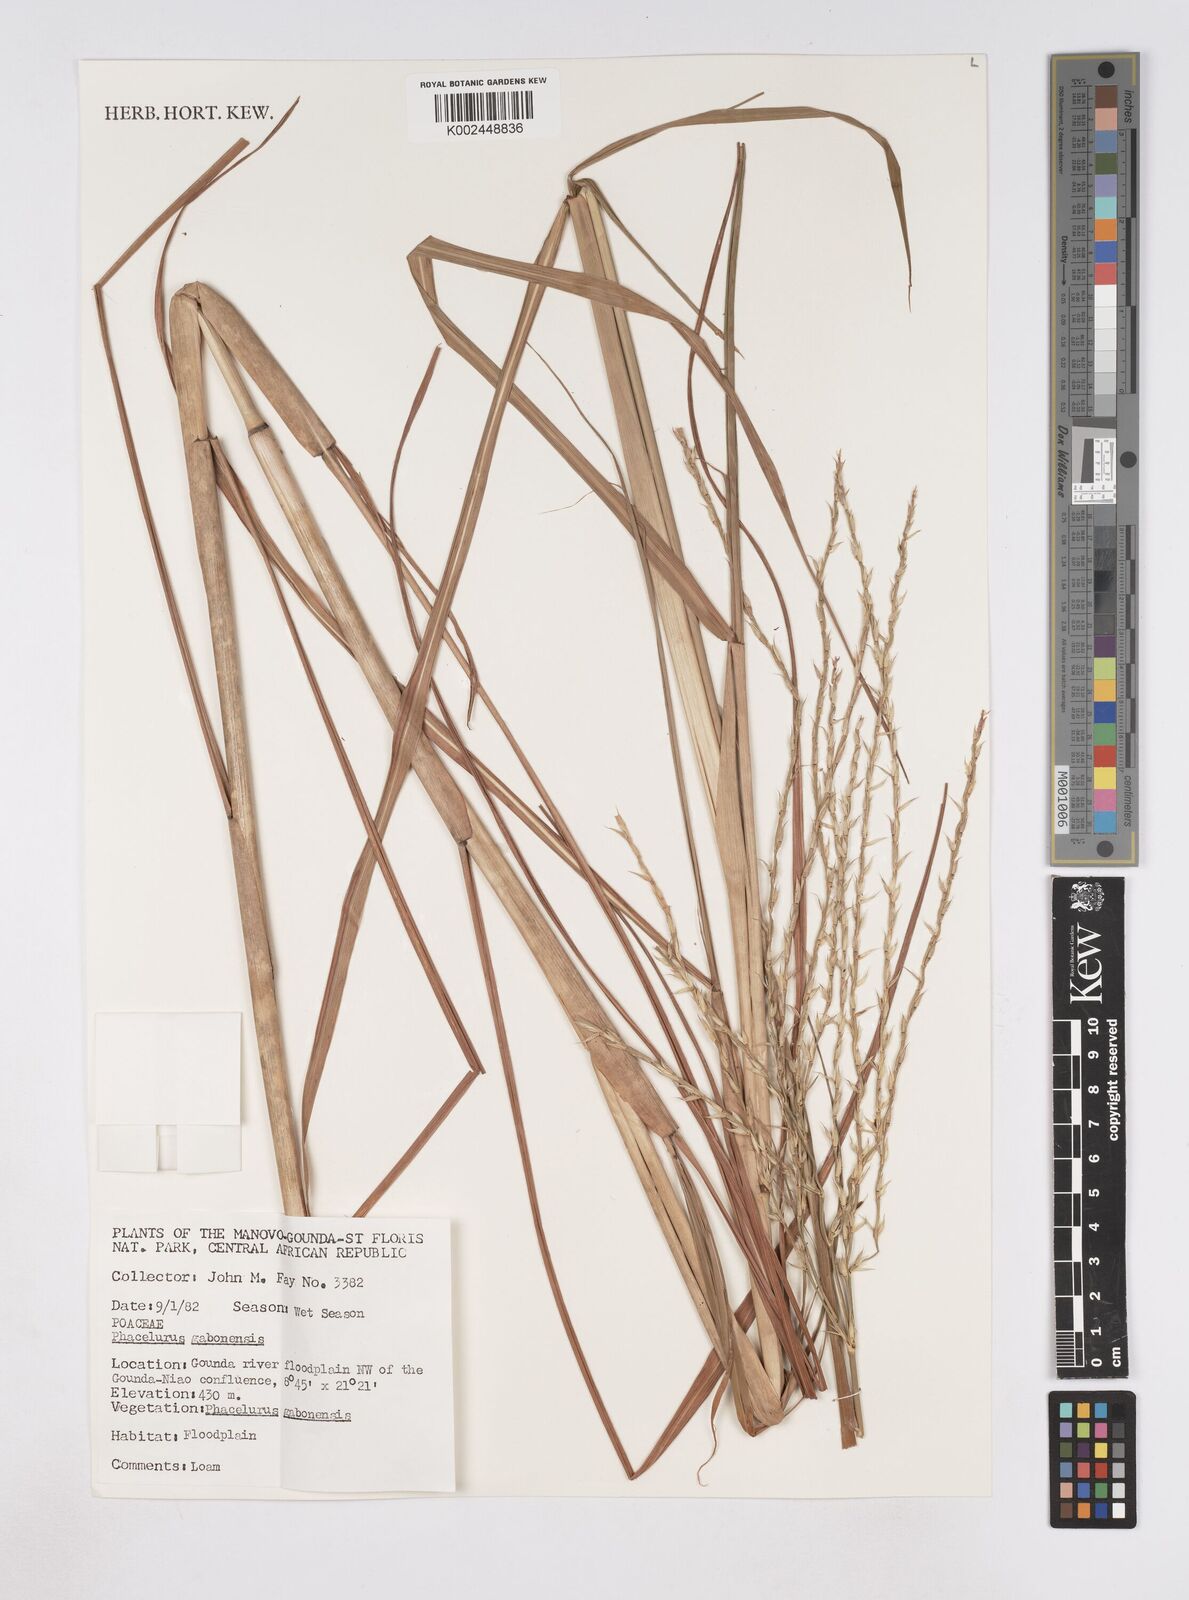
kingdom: Plantae
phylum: Tracheophyta
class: Liliopsida
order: Poales
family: Poaceae
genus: Phacelurus
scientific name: Phacelurus gabonensis
